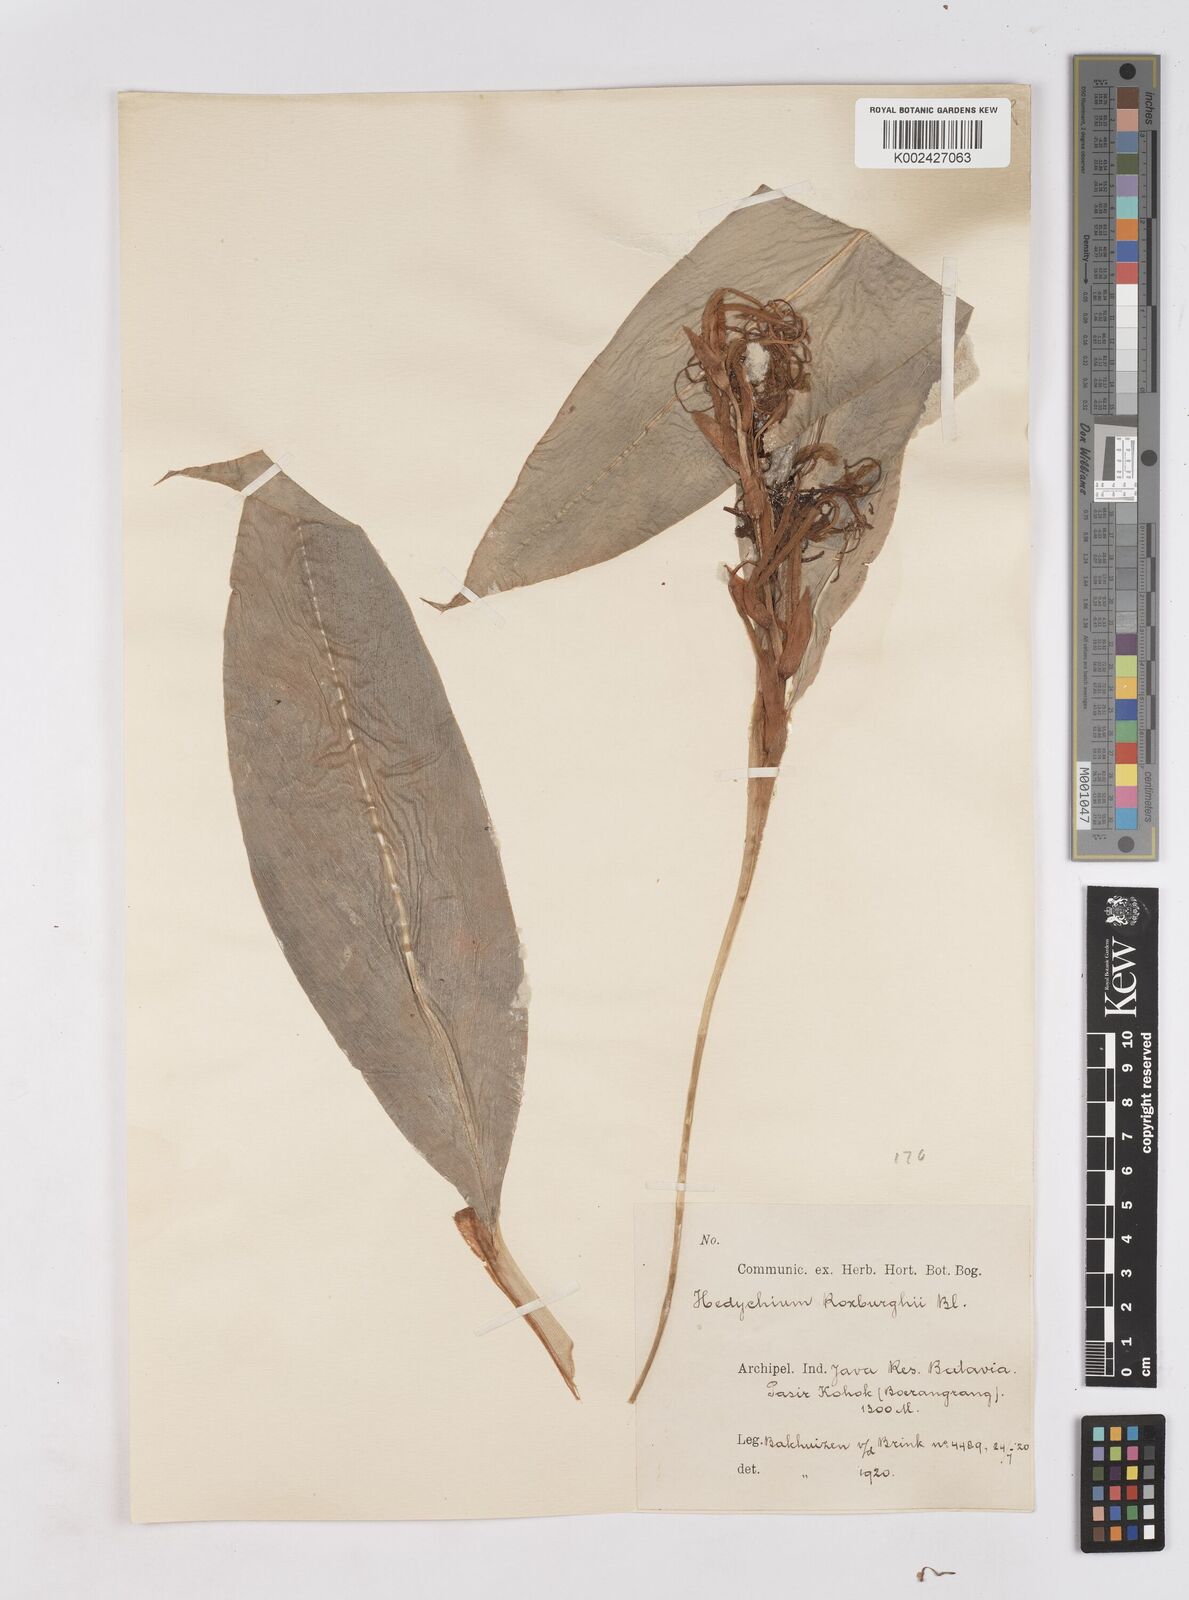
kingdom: Plantae
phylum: Tracheophyta
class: Liliopsida
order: Zingiberales
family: Zingiberaceae
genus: Hedychium
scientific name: Hedychium roxburghii
